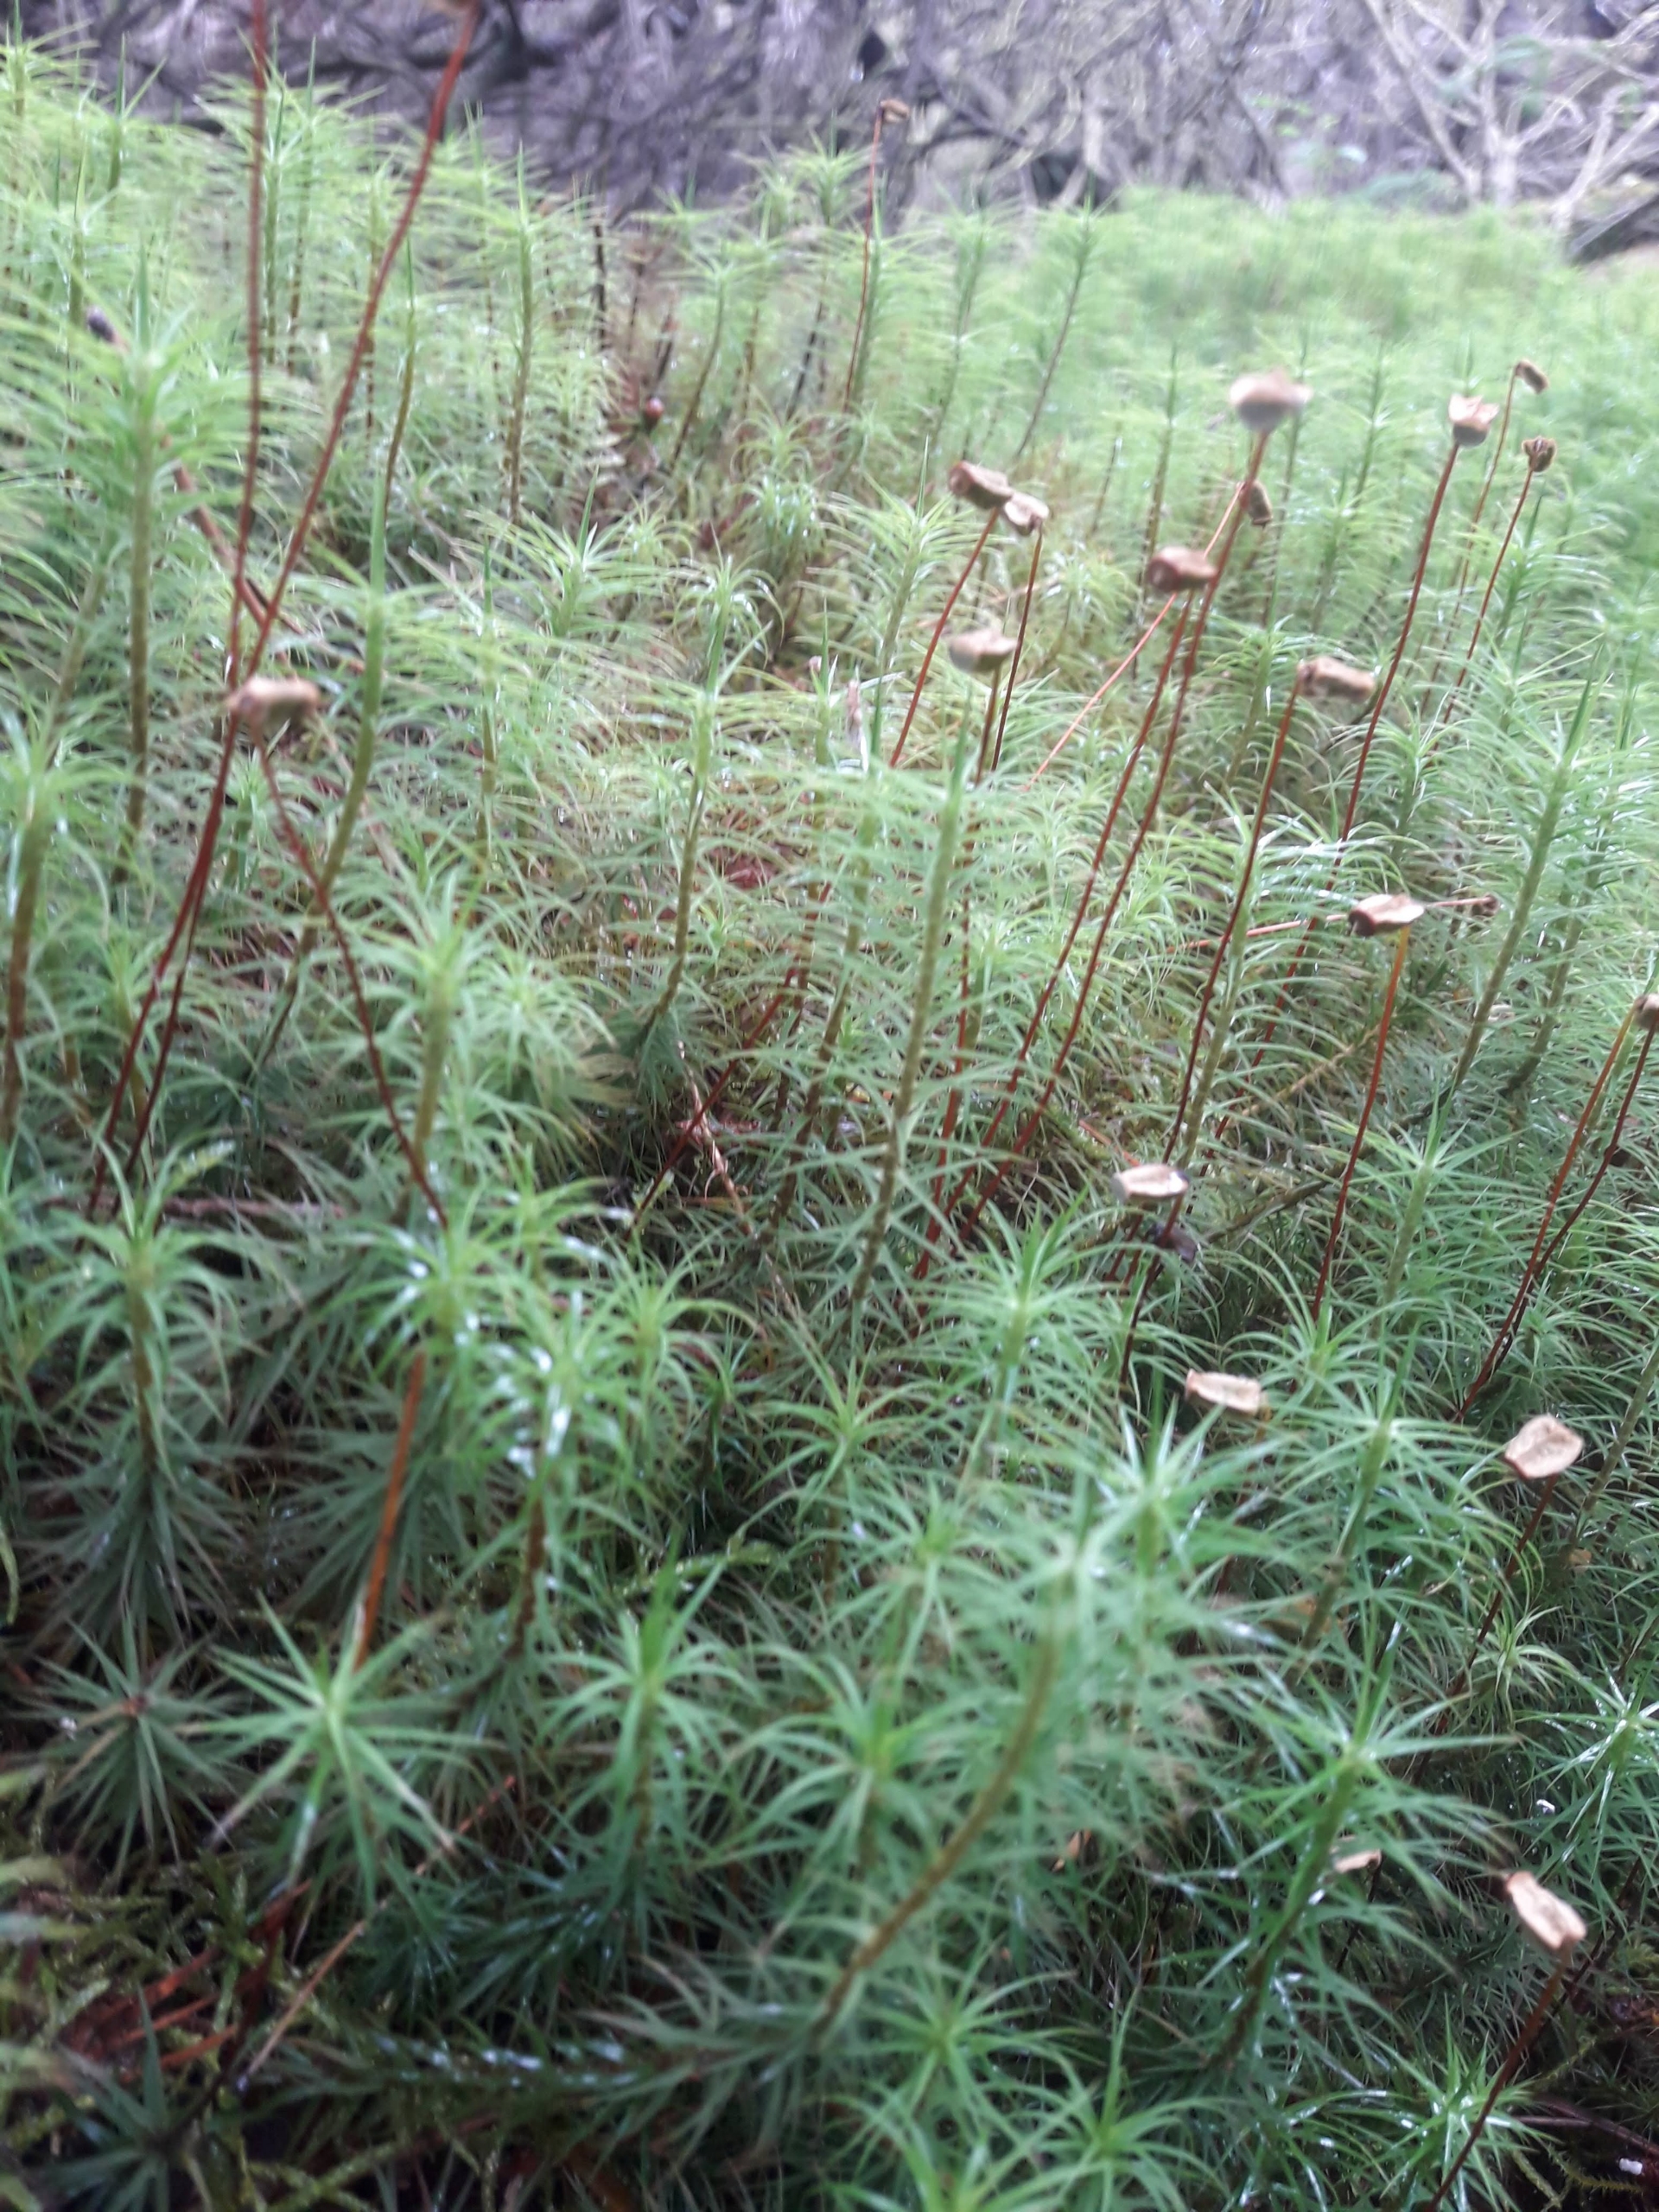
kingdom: Plantae
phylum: Bryophyta
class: Polytrichopsida
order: Polytrichales
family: Polytrichaceae
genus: Polytrichum
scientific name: Polytrichum commune
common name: Almindelig jomfruhår
